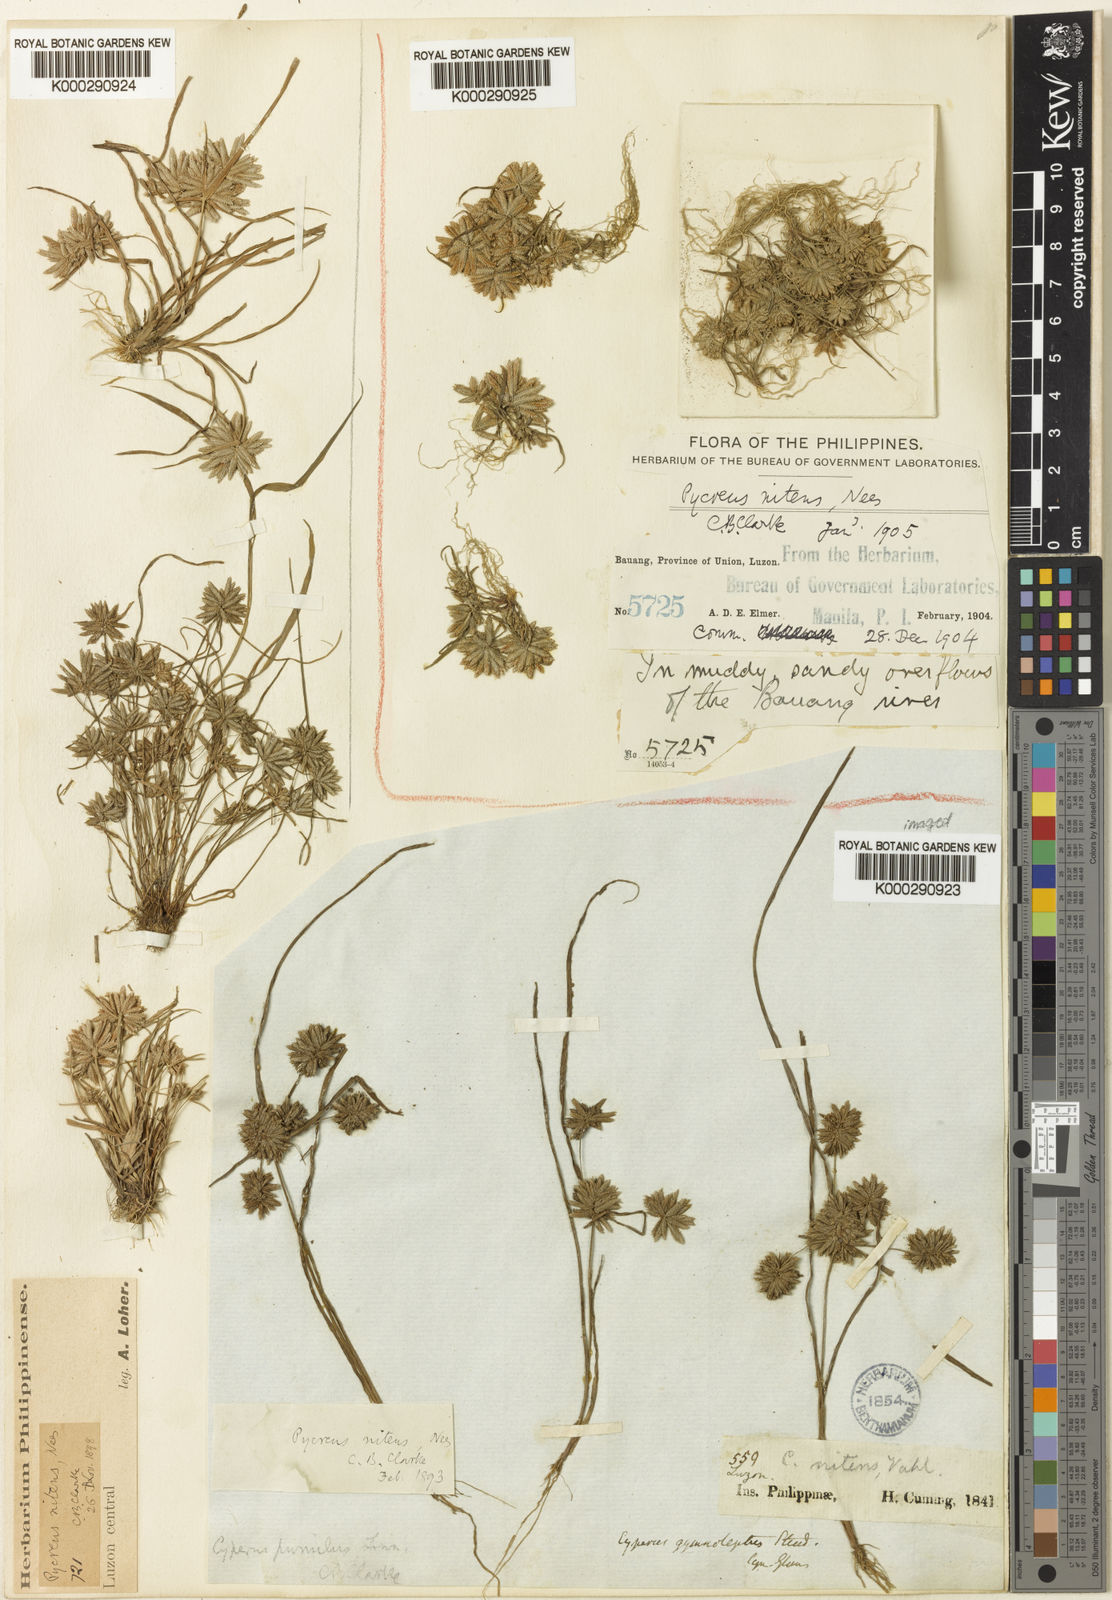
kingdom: Plantae
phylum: Tracheophyta
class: Liliopsida
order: Poales
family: Cyperaceae
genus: Cyperus
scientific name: Cyperus
